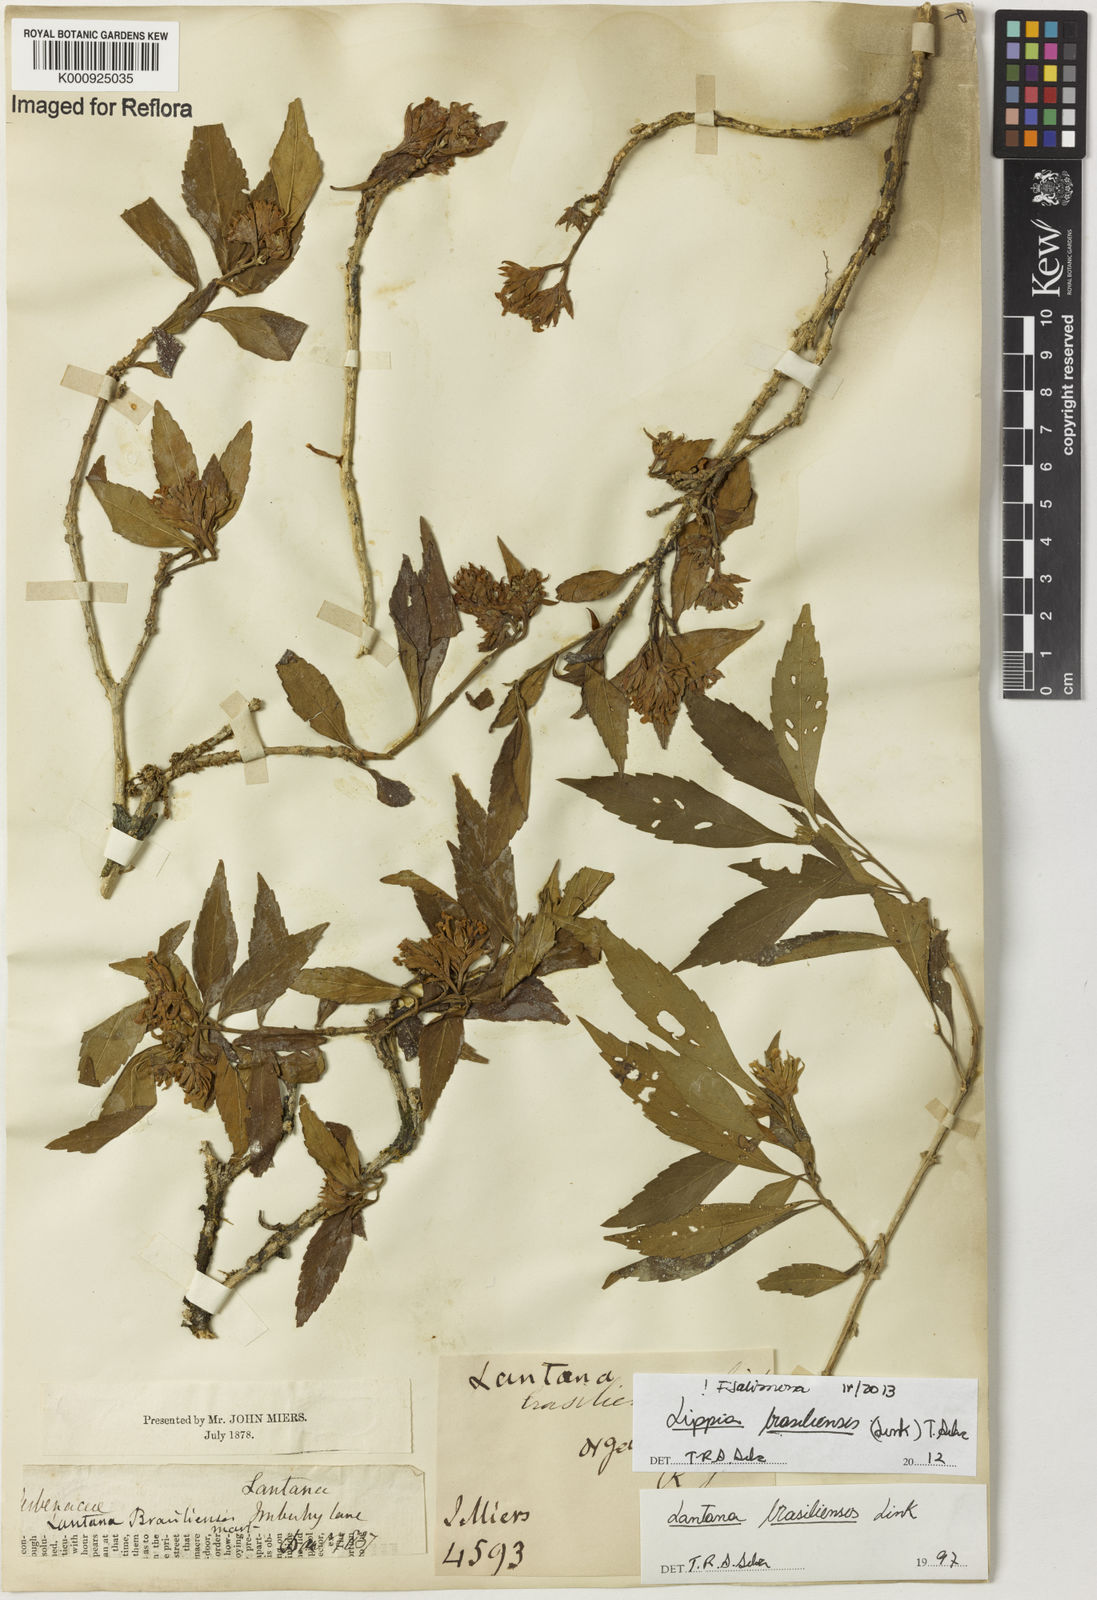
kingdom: Plantae
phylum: Tracheophyta
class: Magnoliopsida
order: Lamiales
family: Verbenaceae
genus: Lippia
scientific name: Lippia brasiliensis
